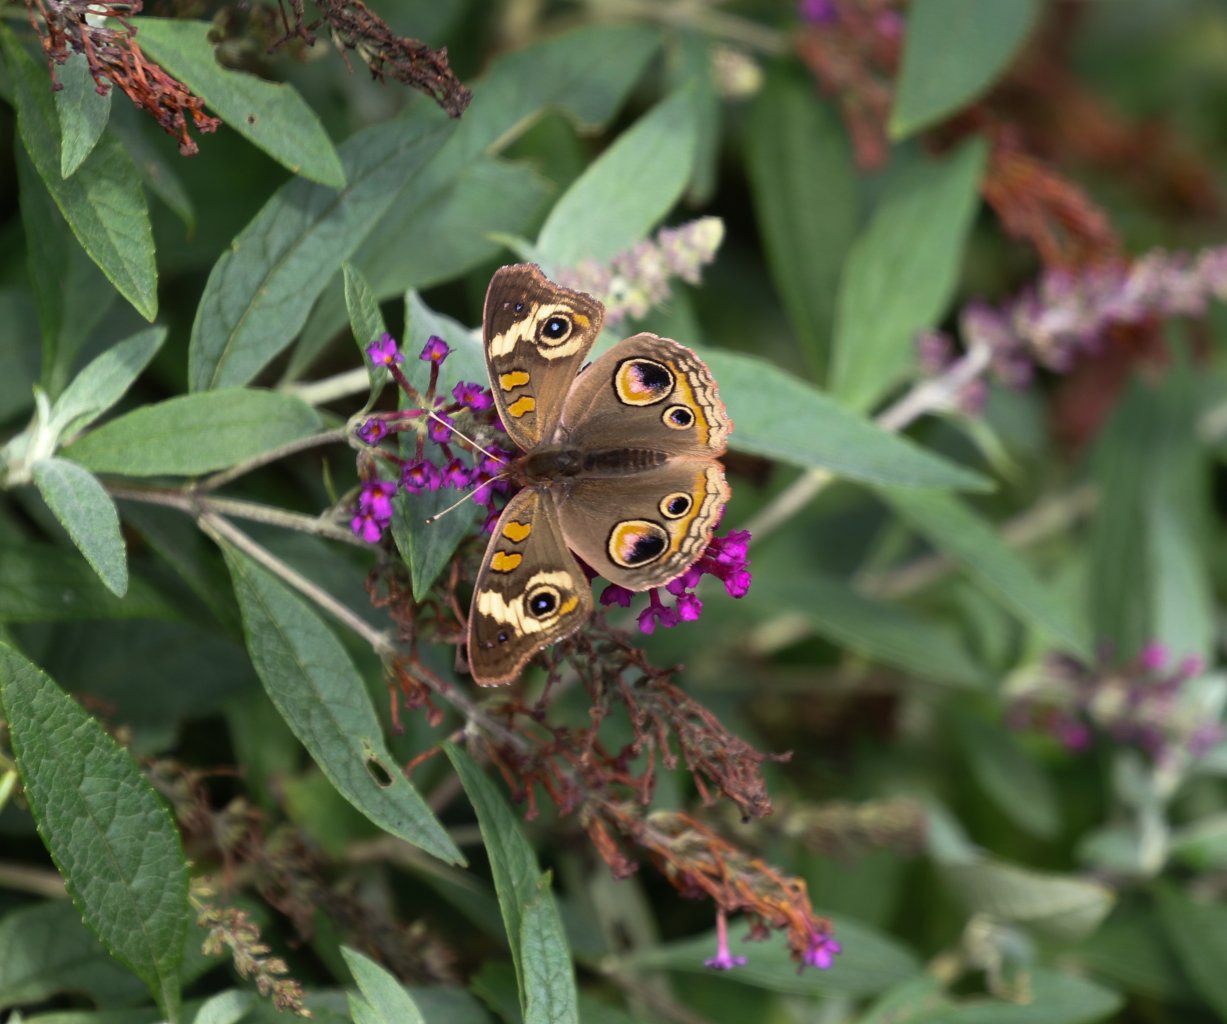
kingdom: Animalia
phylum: Arthropoda
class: Insecta
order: Lepidoptera
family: Nymphalidae
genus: Junonia
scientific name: Junonia coenia
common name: Common Buckeye
